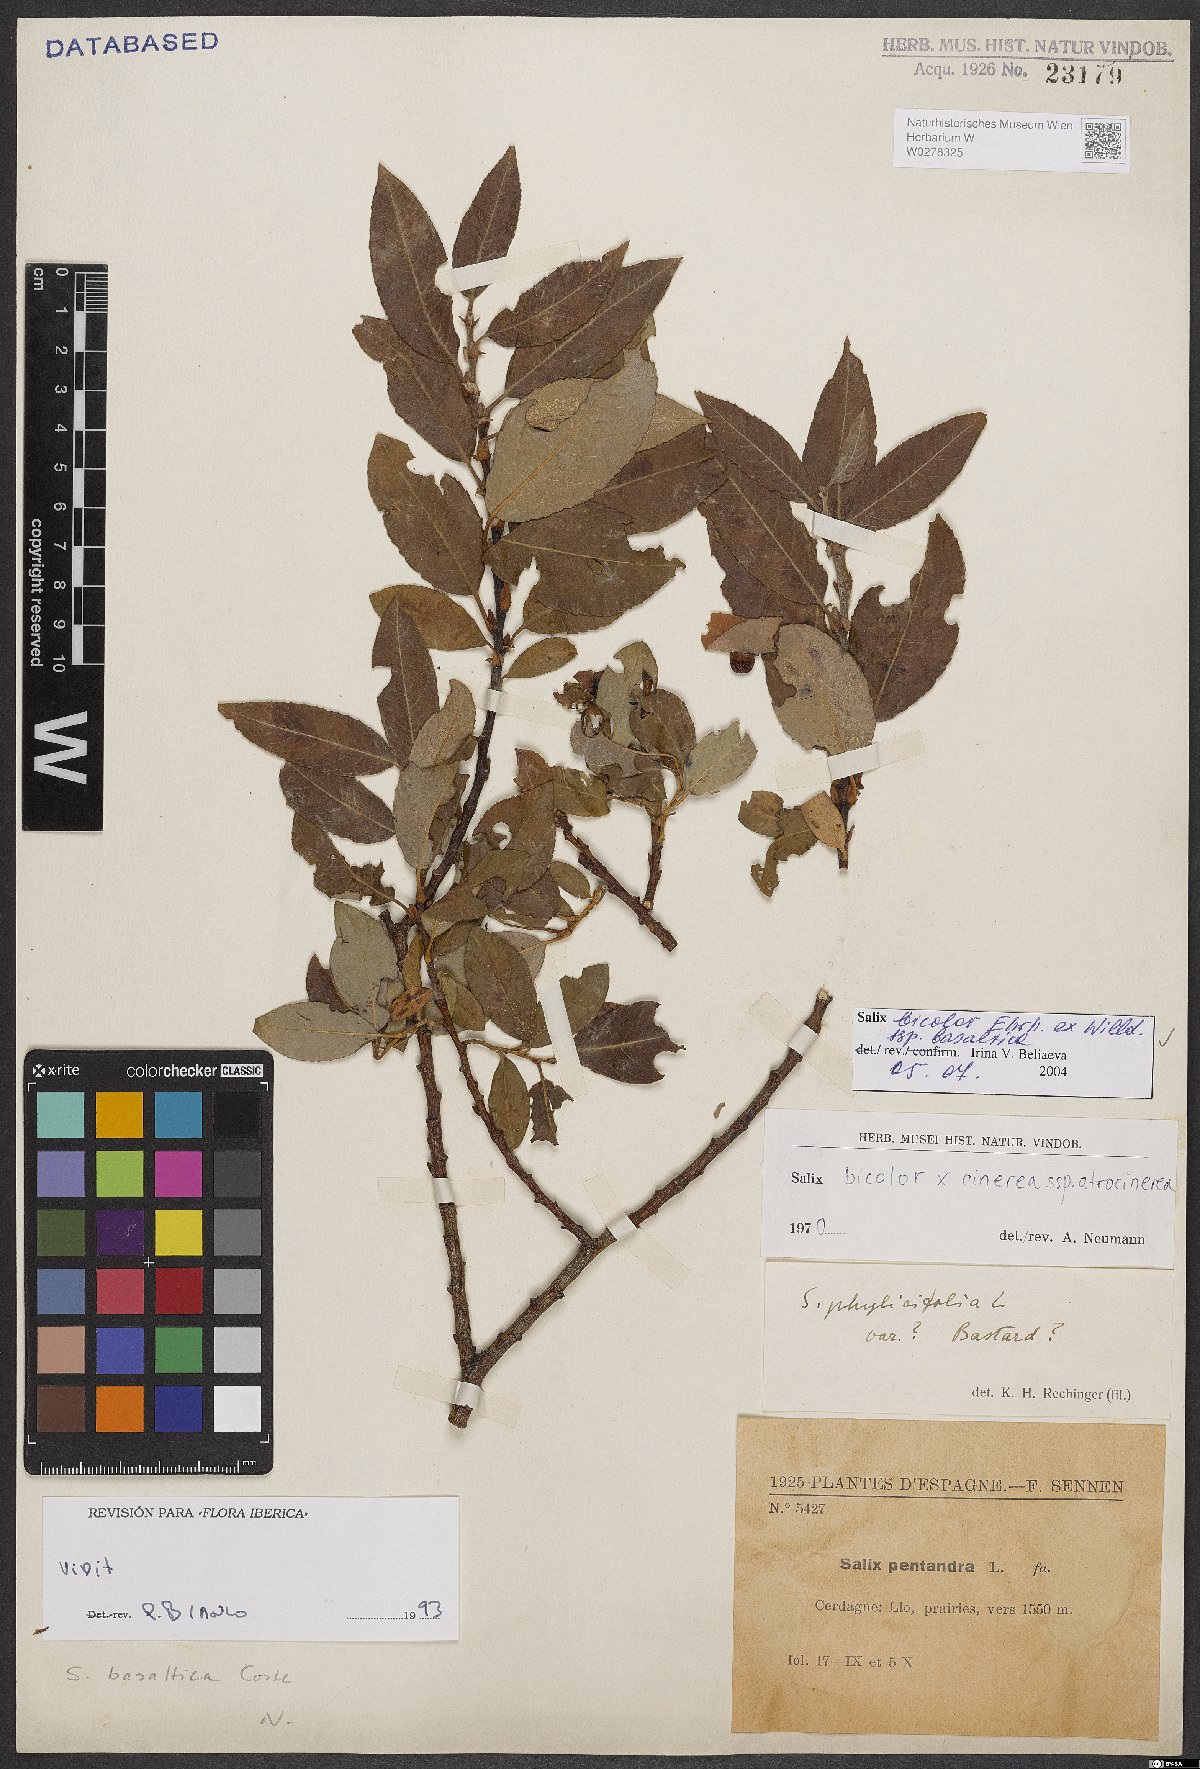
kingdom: Plantae
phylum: Tracheophyta
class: Magnoliopsida
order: Malpighiales
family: Salicaceae
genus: Salix
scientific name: Salix basaltica
